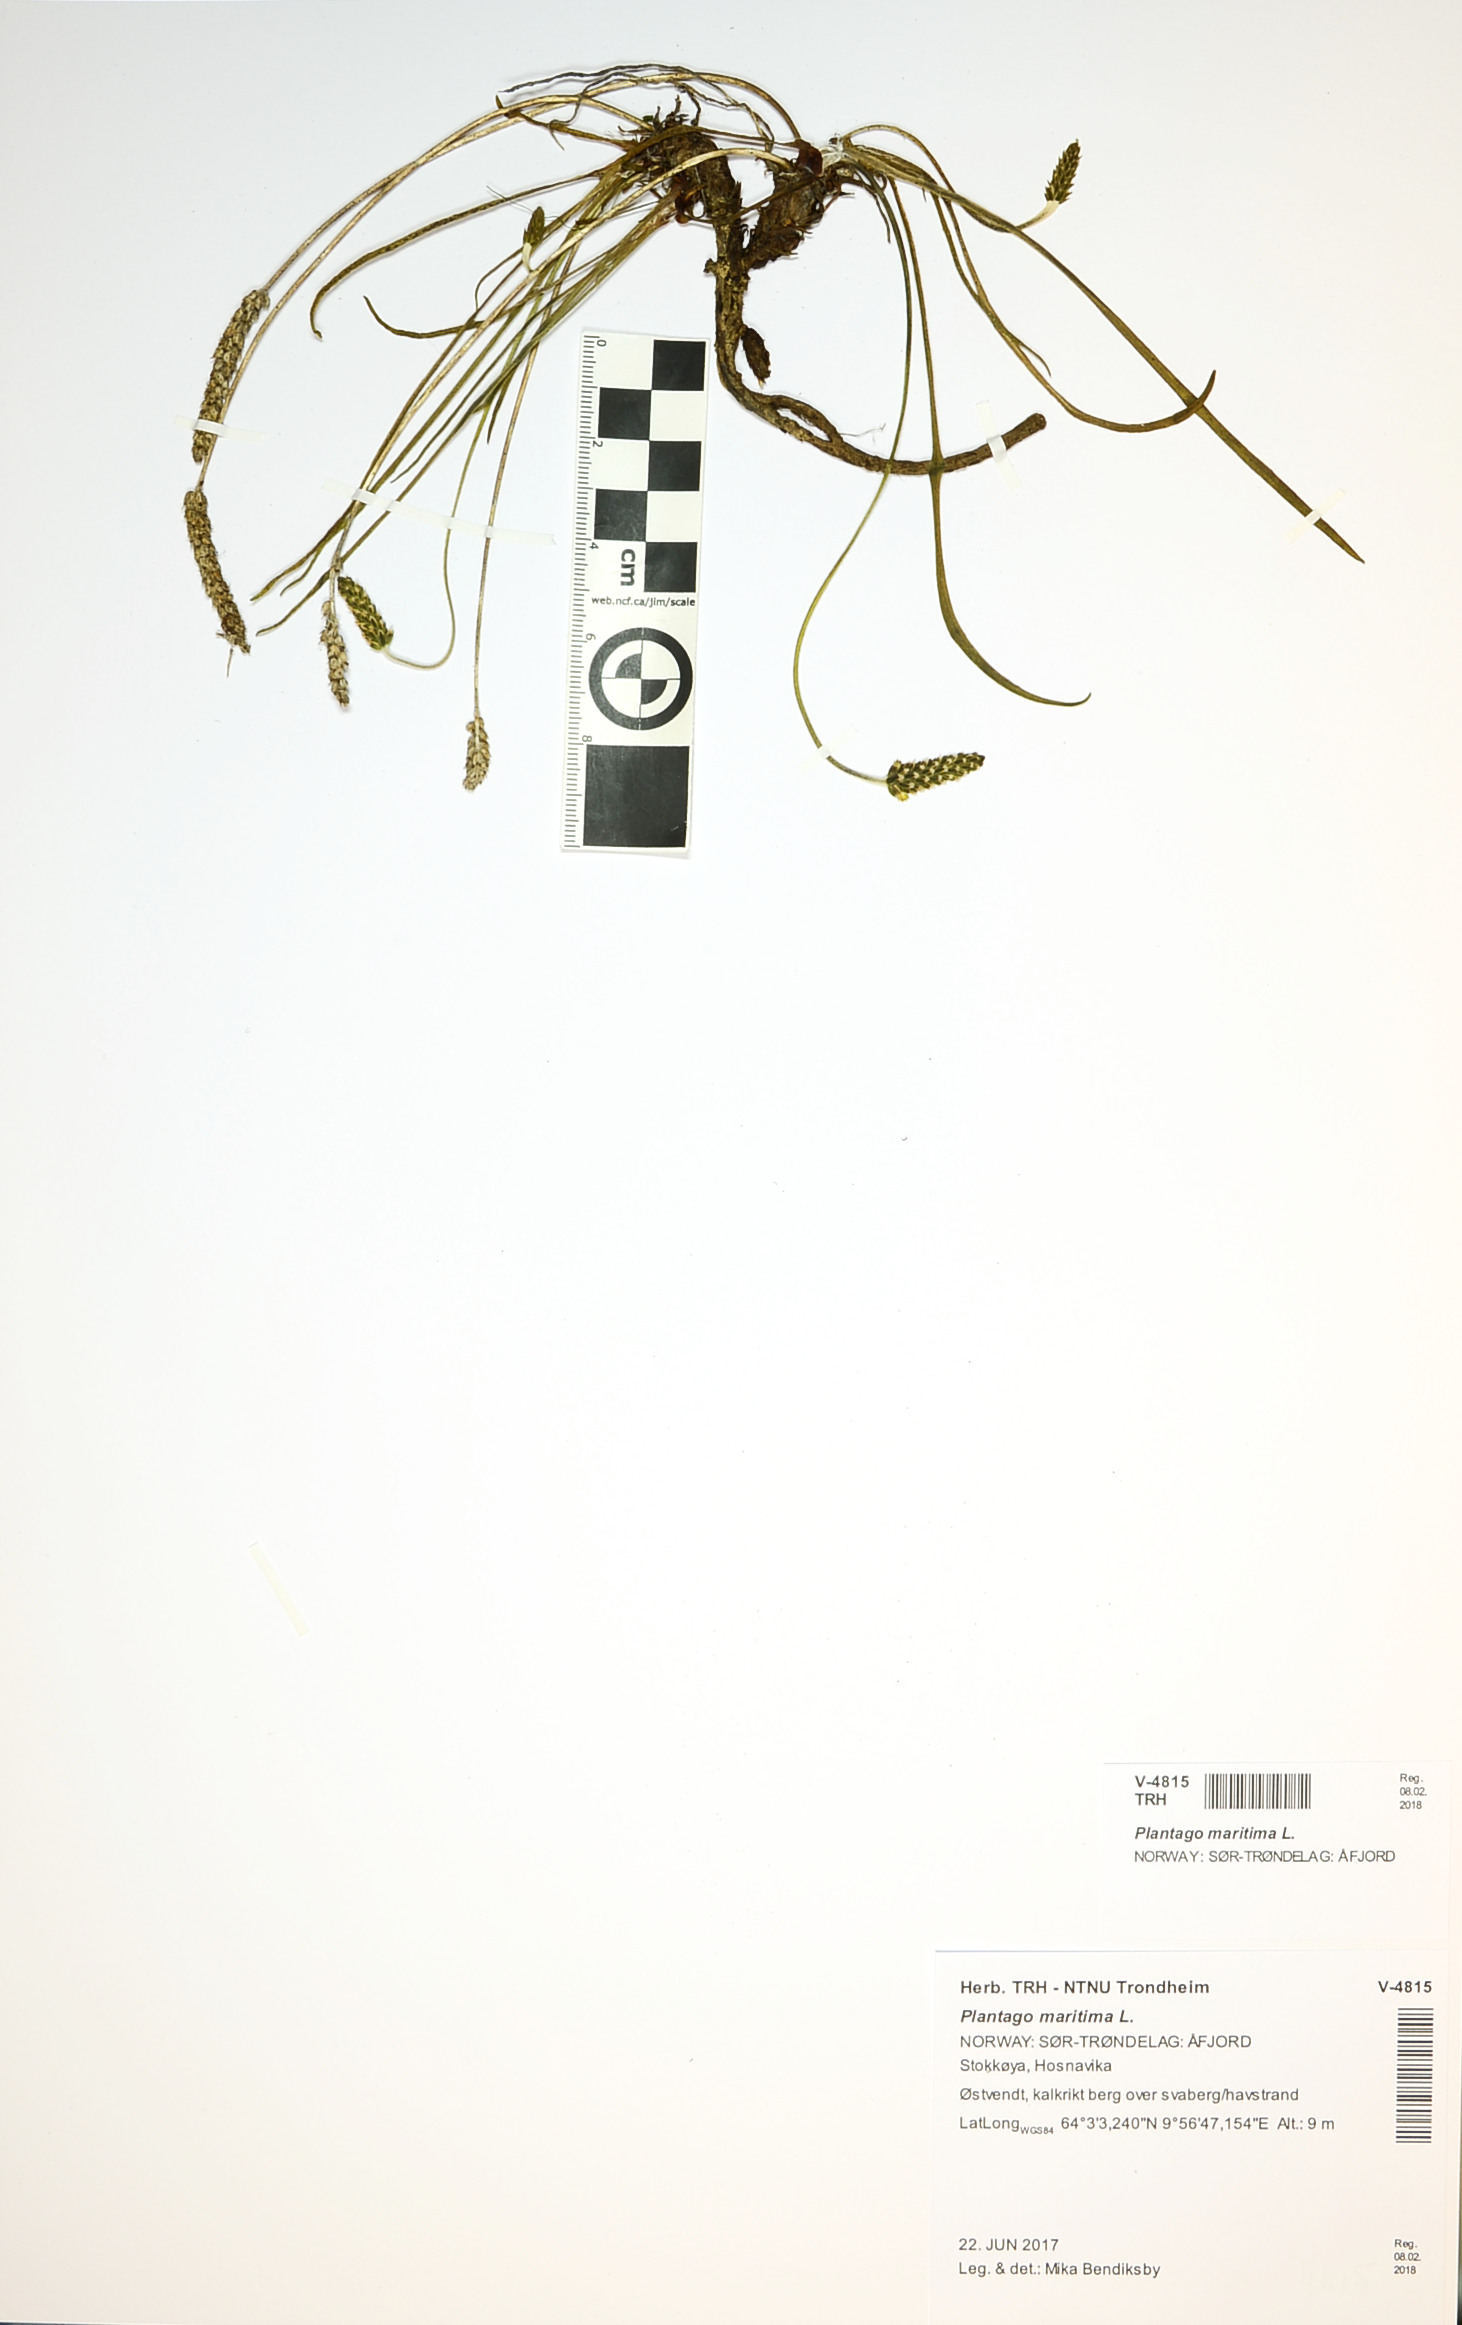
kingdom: Plantae
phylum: Tracheophyta
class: Magnoliopsida
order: Lamiales
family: Plantaginaceae
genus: Plantago
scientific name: Plantago maritima
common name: Sea plantain
